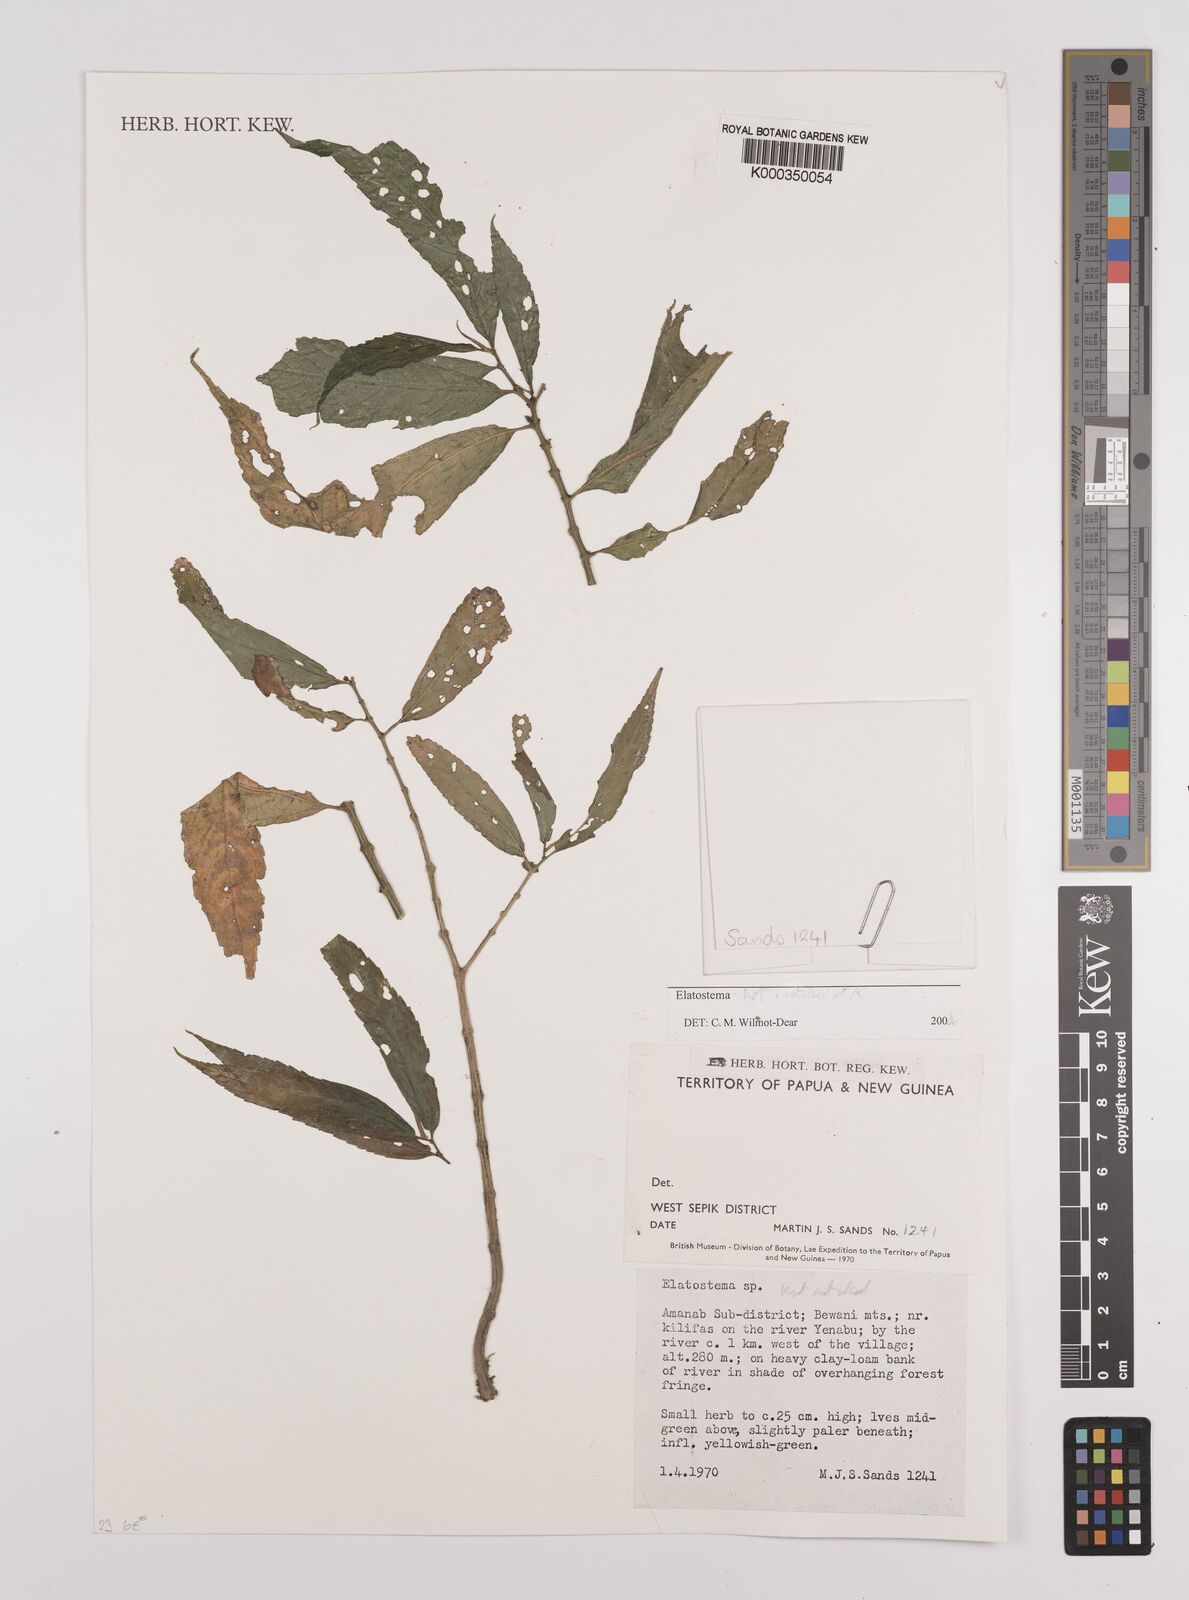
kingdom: Plantae
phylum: Tracheophyta
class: Magnoliopsida
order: Rosales
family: Urticaceae
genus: Elatostema
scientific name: Elatostema
